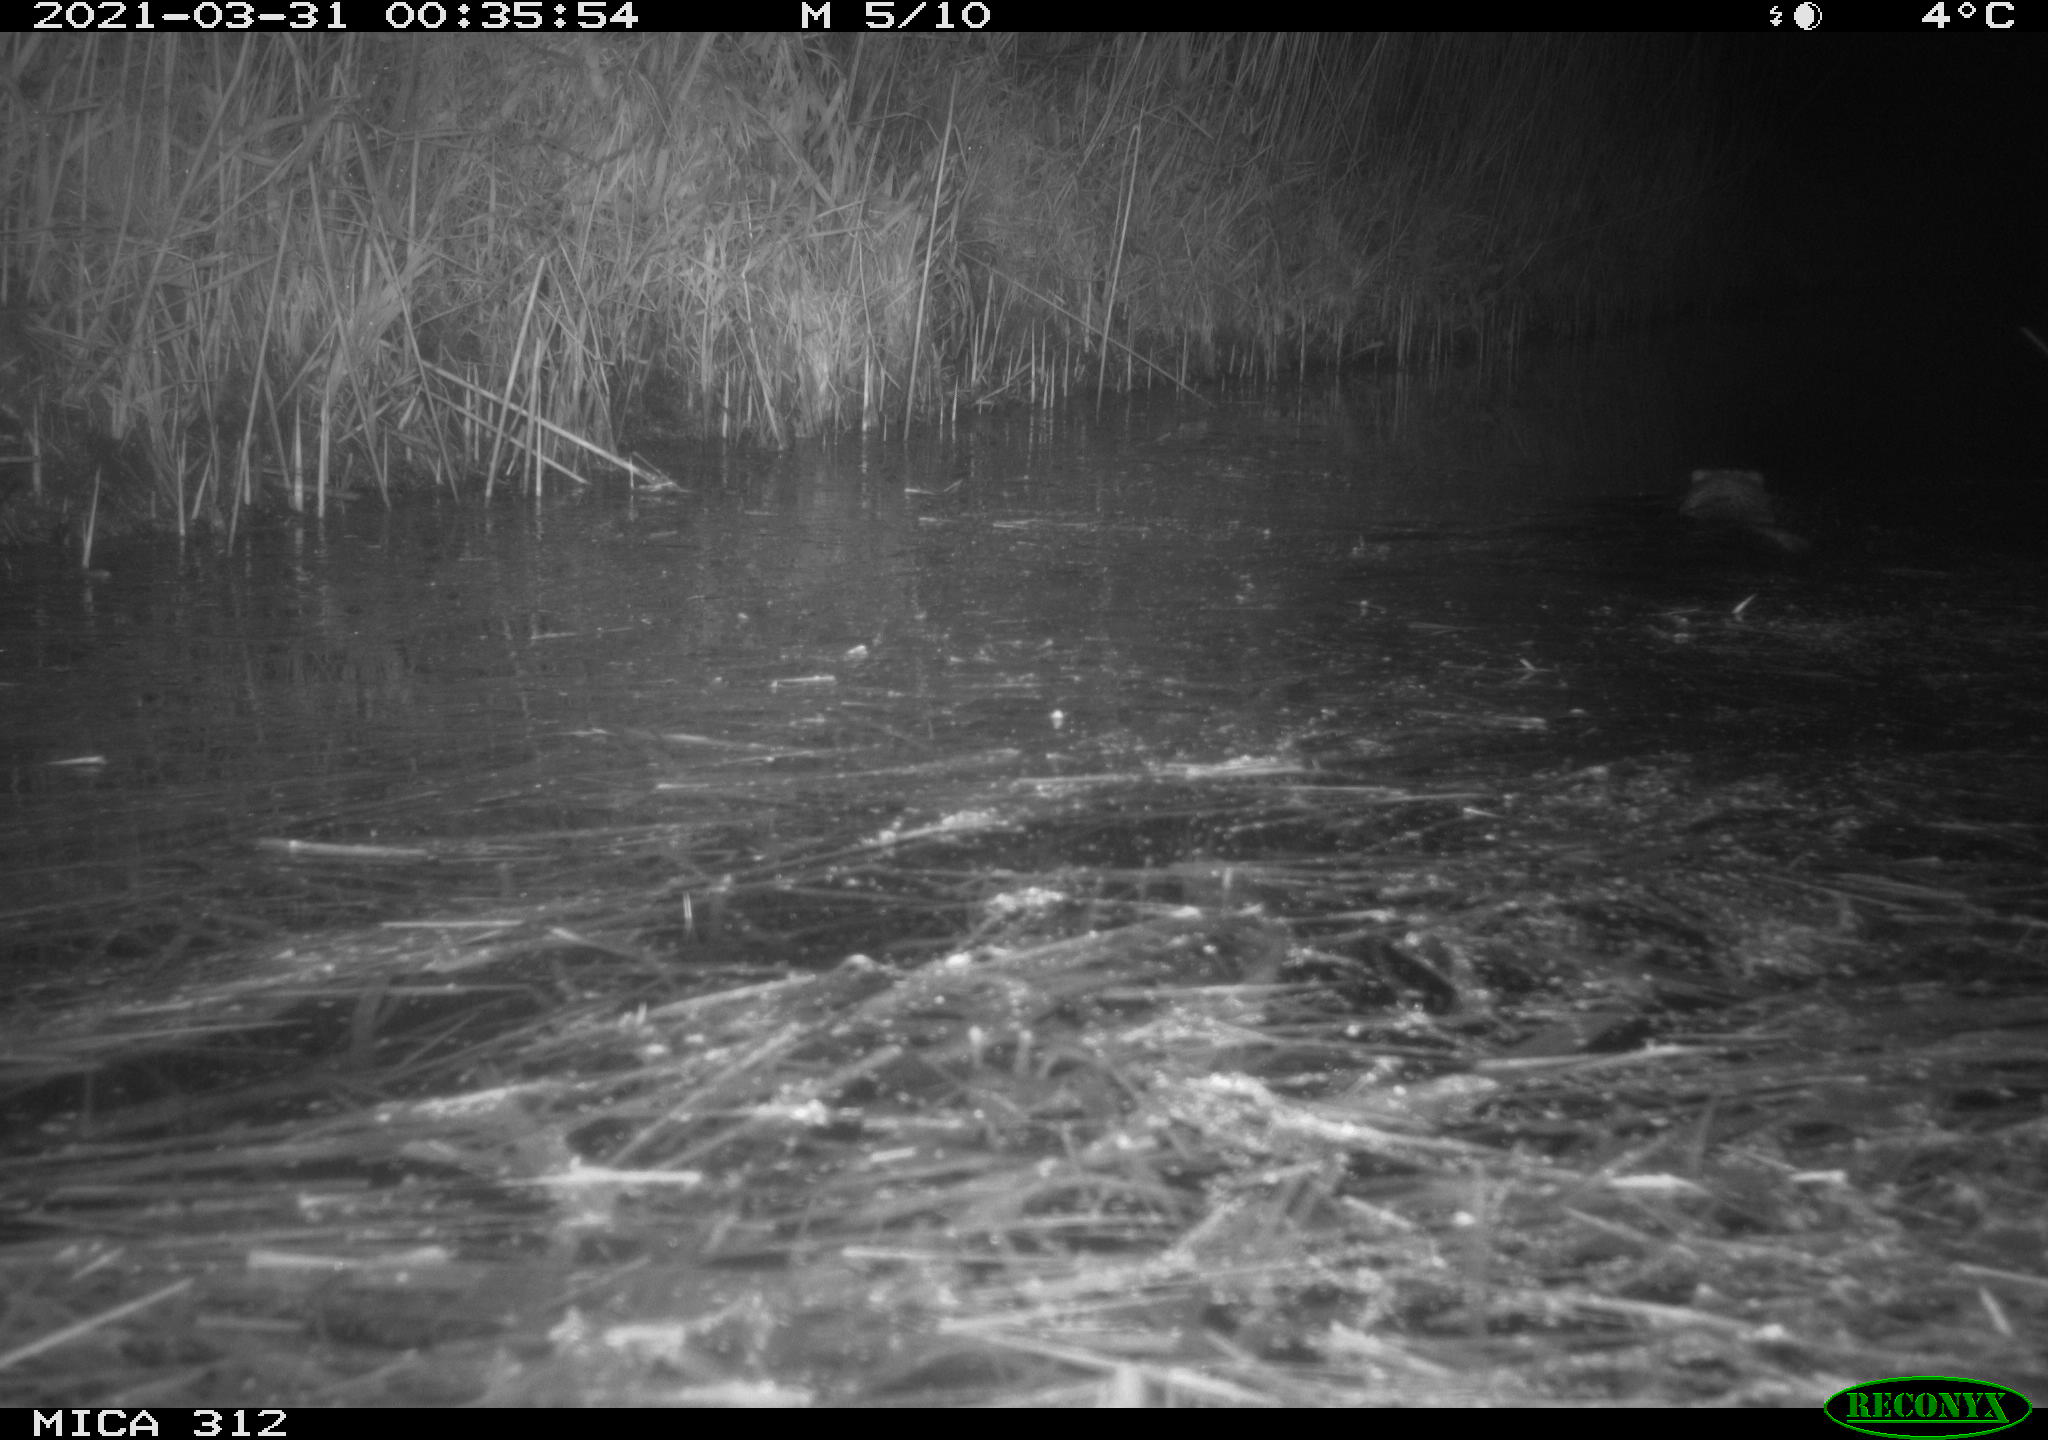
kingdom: Animalia
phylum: Chordata
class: Mammalia
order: Rodentia
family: Cricetidae
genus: Ondatra
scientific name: Ondatra zibethicus
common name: Muskrat
